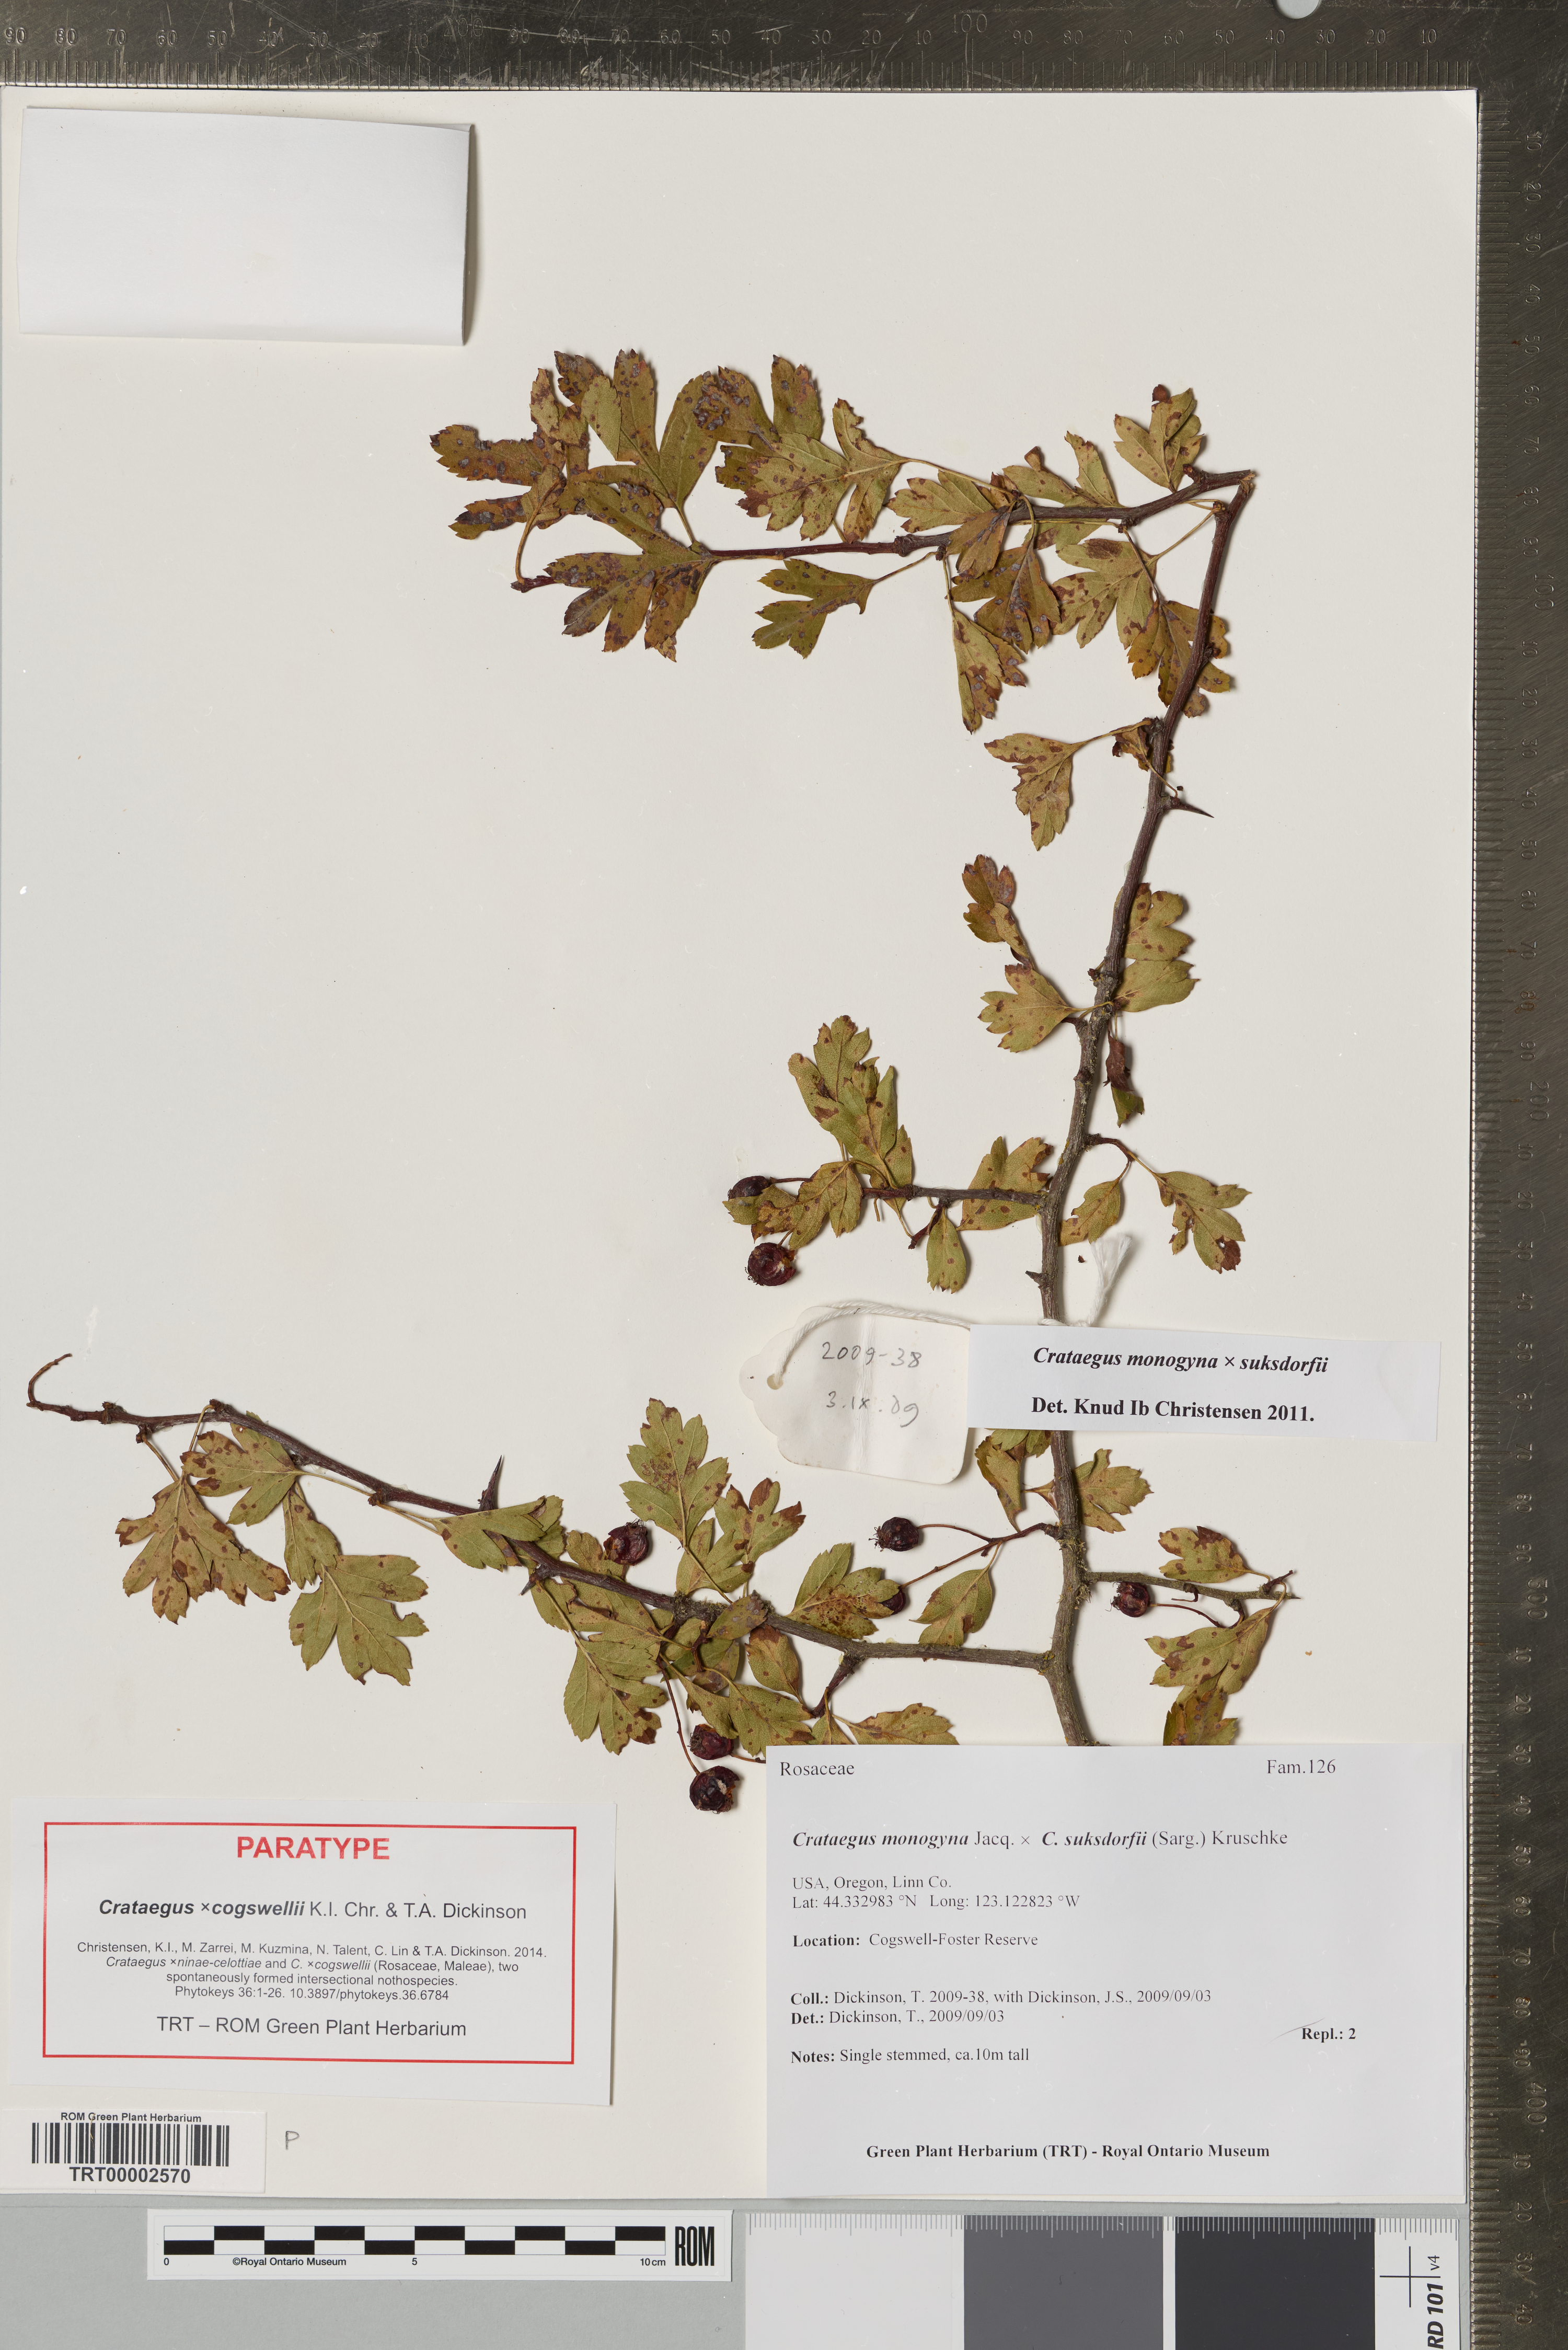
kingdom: Plantae
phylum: Tracheophyta
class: Magnoliopsida
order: Rosales
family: Rosaceae
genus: Crataegus
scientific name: Crataegus
